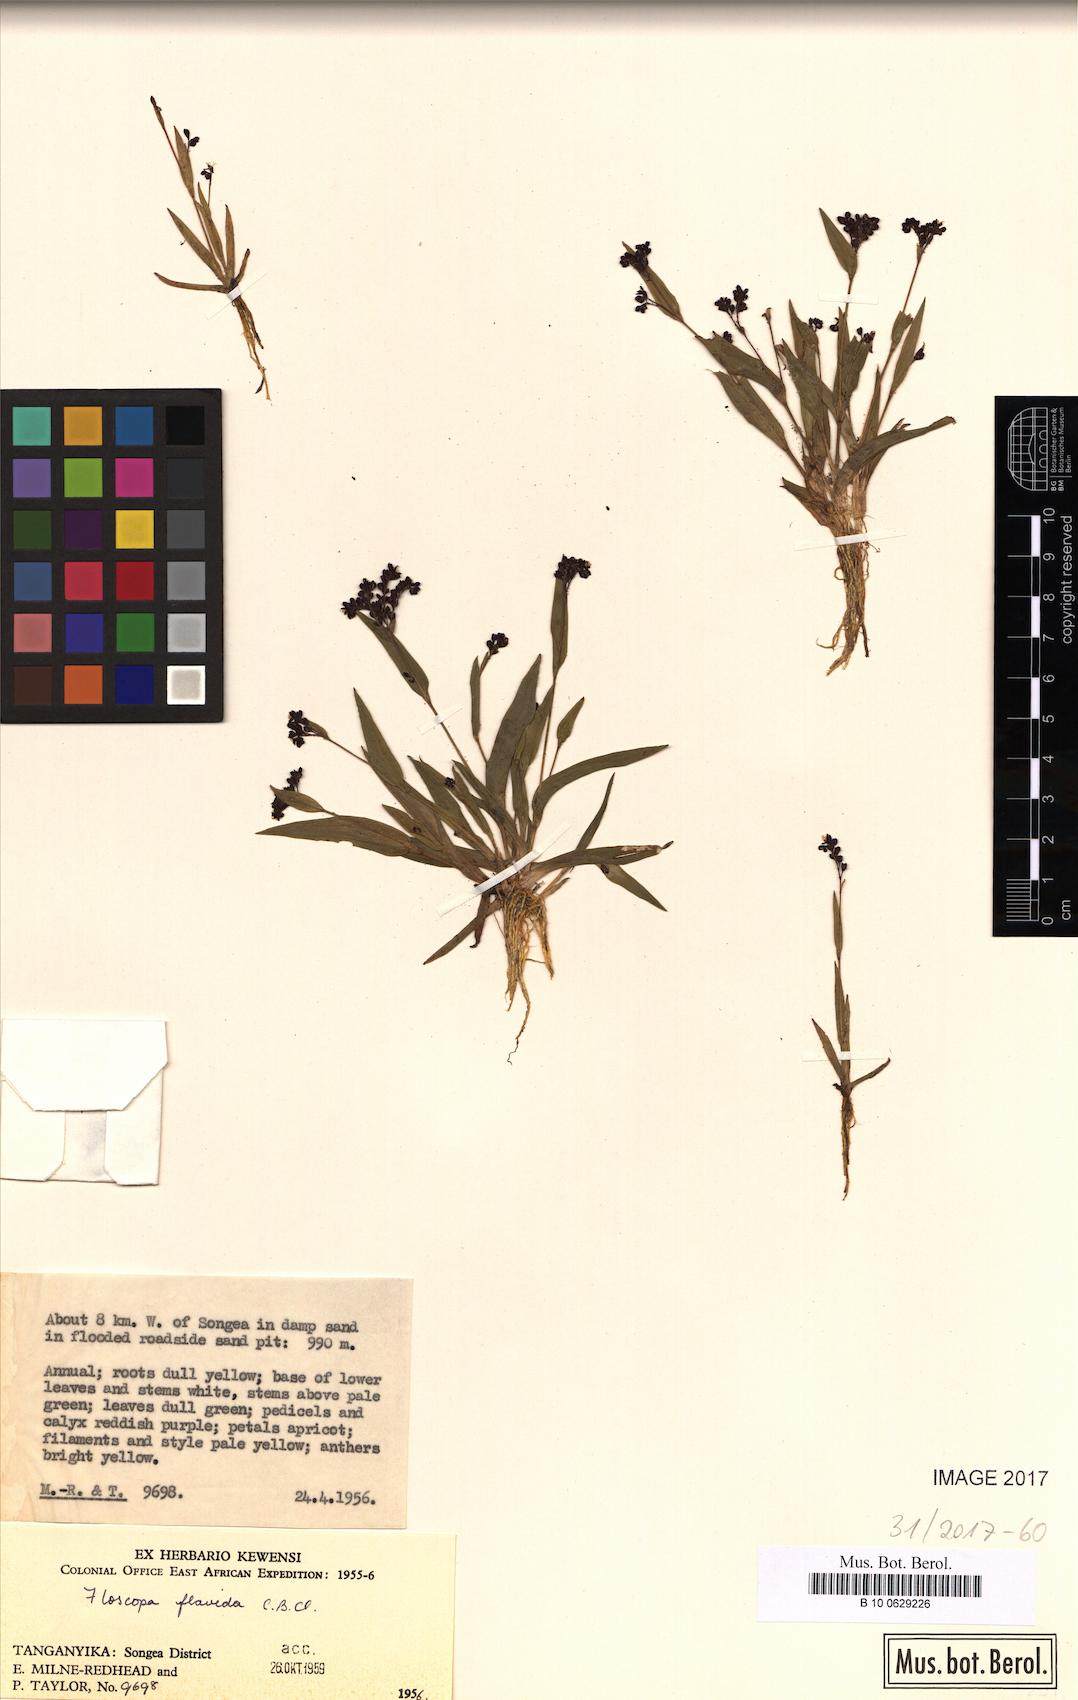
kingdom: Plantae
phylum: Tracheophyta
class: Liliopsida
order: Commelinales
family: Commelinaceae
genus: Floscopa
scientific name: Floscopa flavida
